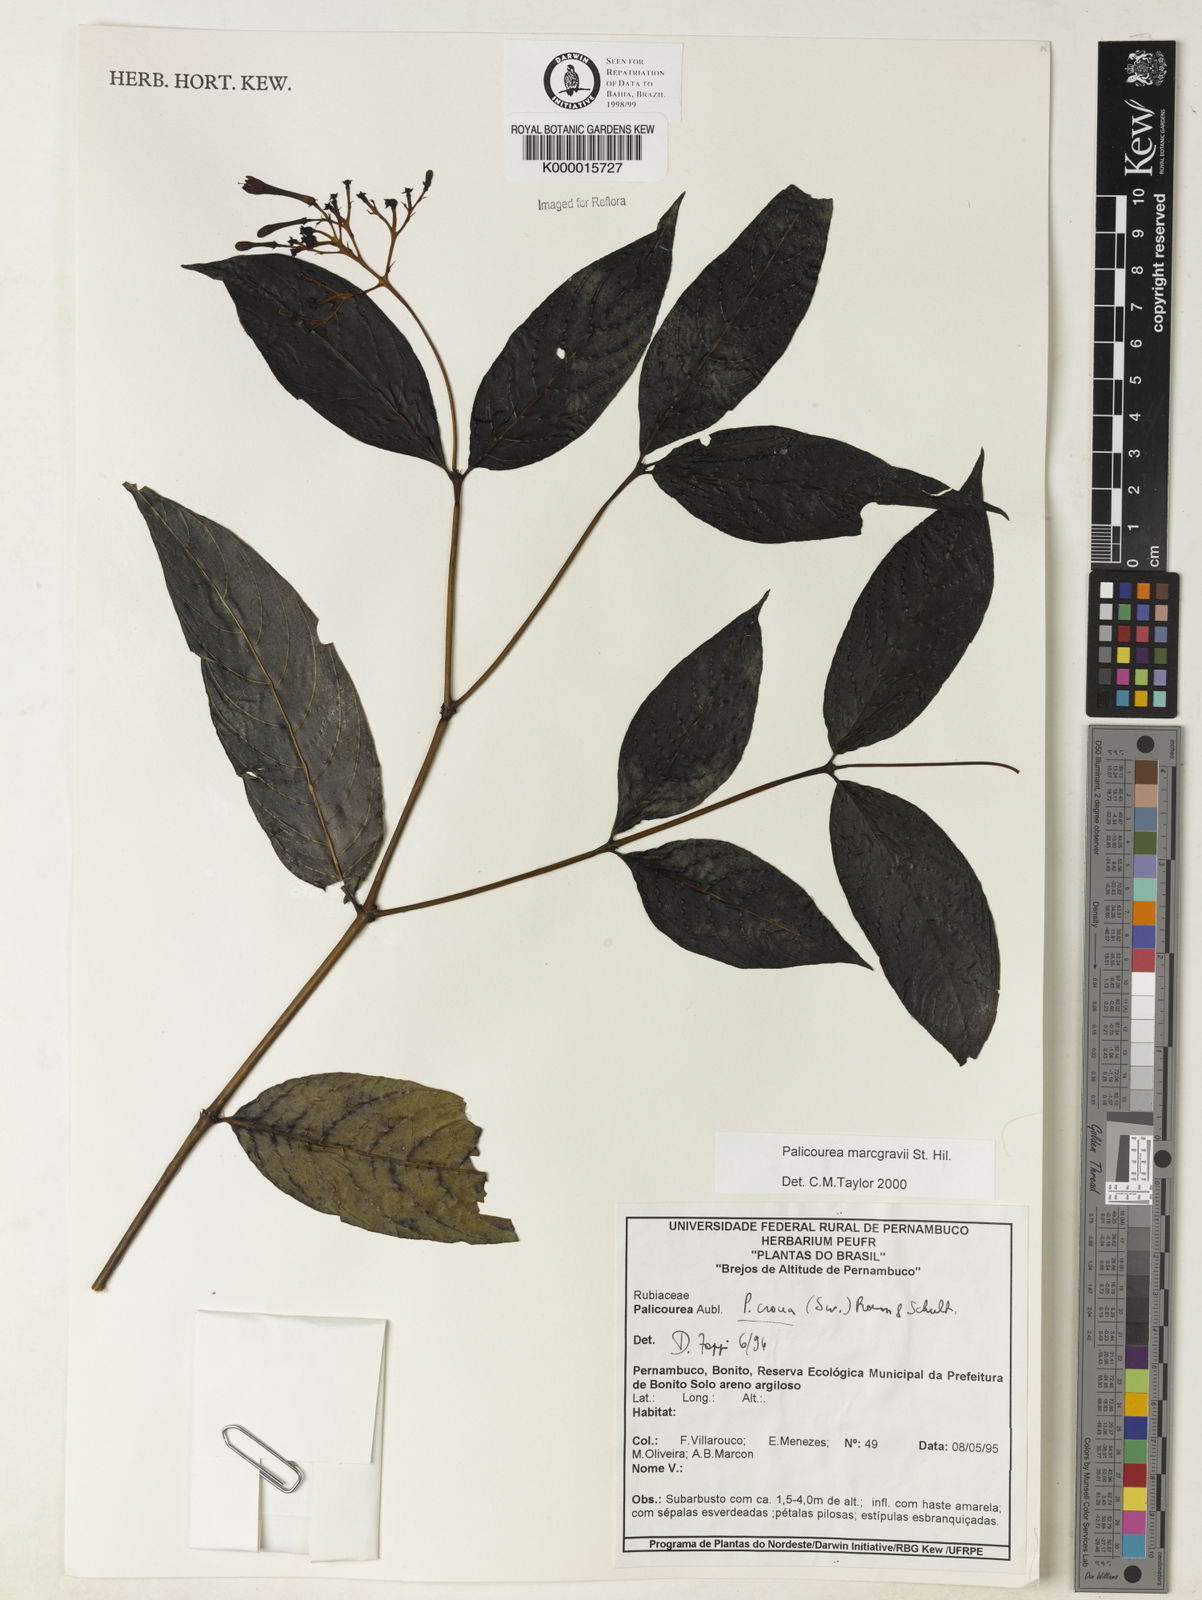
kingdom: Plantae
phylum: Tracheophyta
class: Magnoliopsida
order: Gentianales
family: Rubiaceae
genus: Palicourea
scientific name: Palicourea marcgravii
